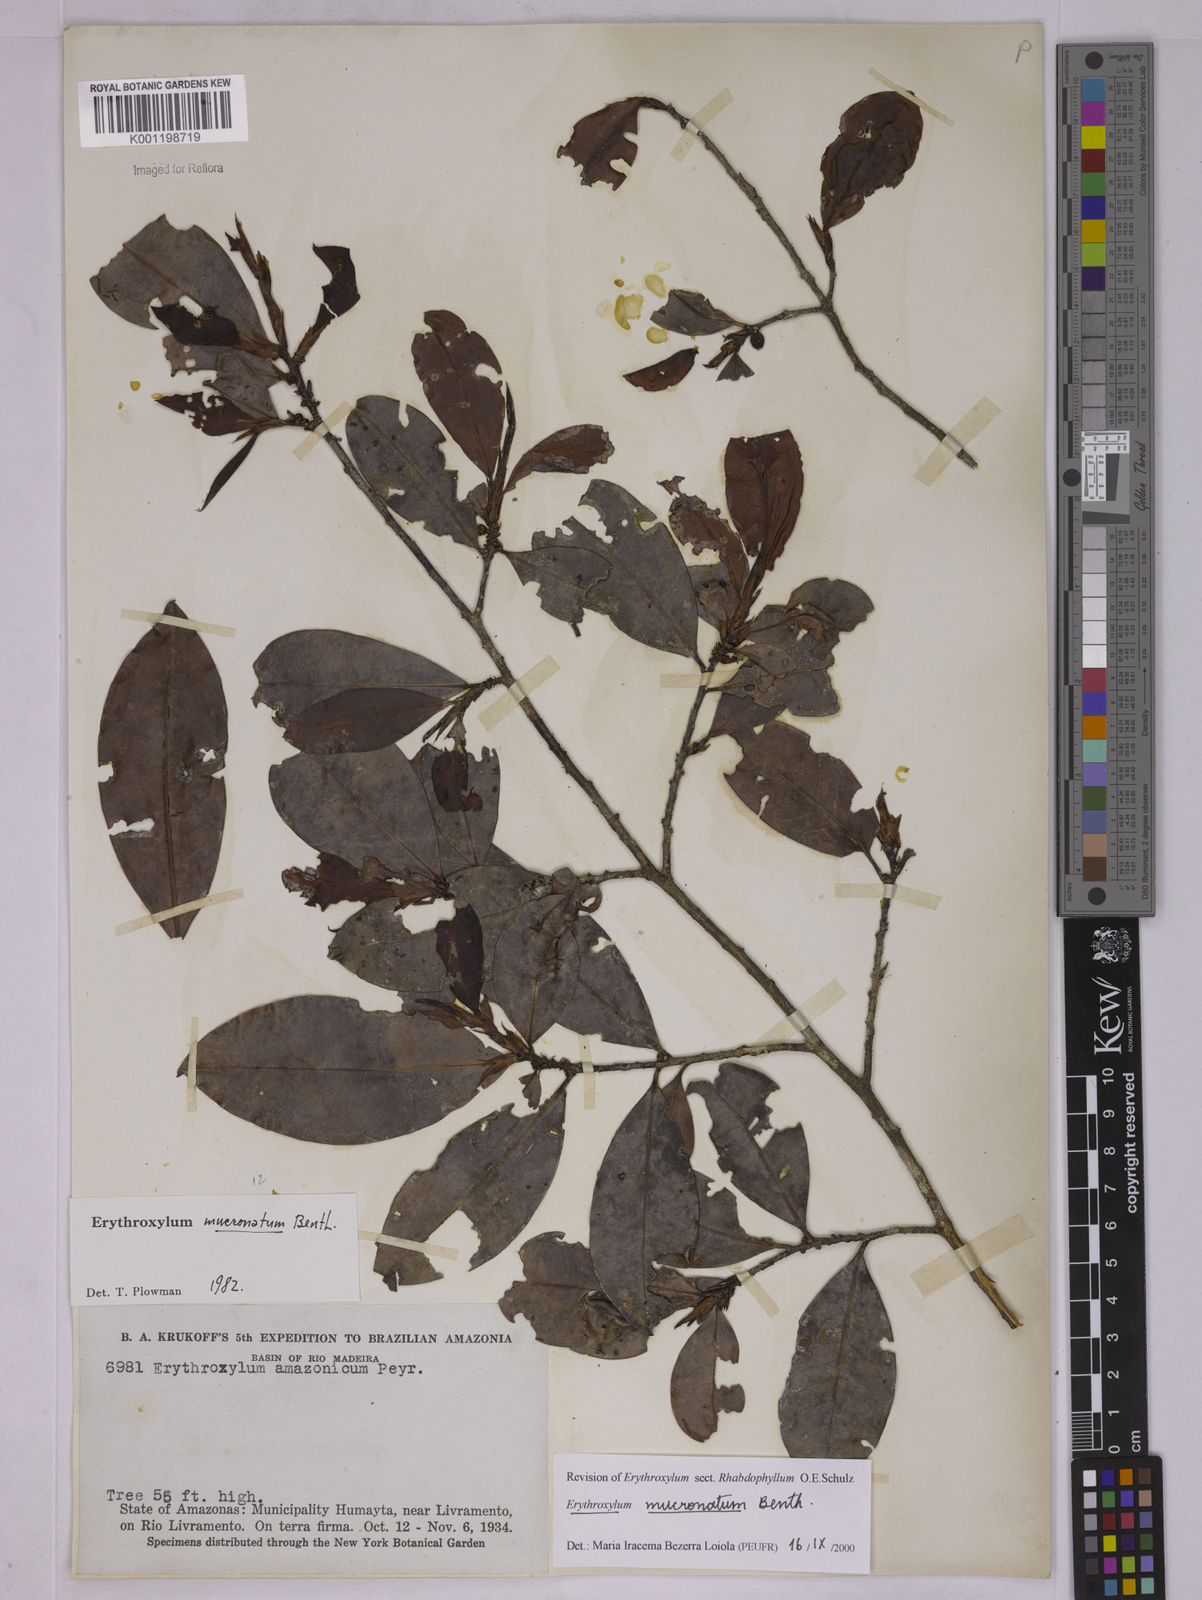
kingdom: Plantae
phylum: Tracheophyta
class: Magnoliopsida
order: Malpighiales
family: Erythroxylaceae
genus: Erythroxylum
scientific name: Erythroxylum mucronatum
